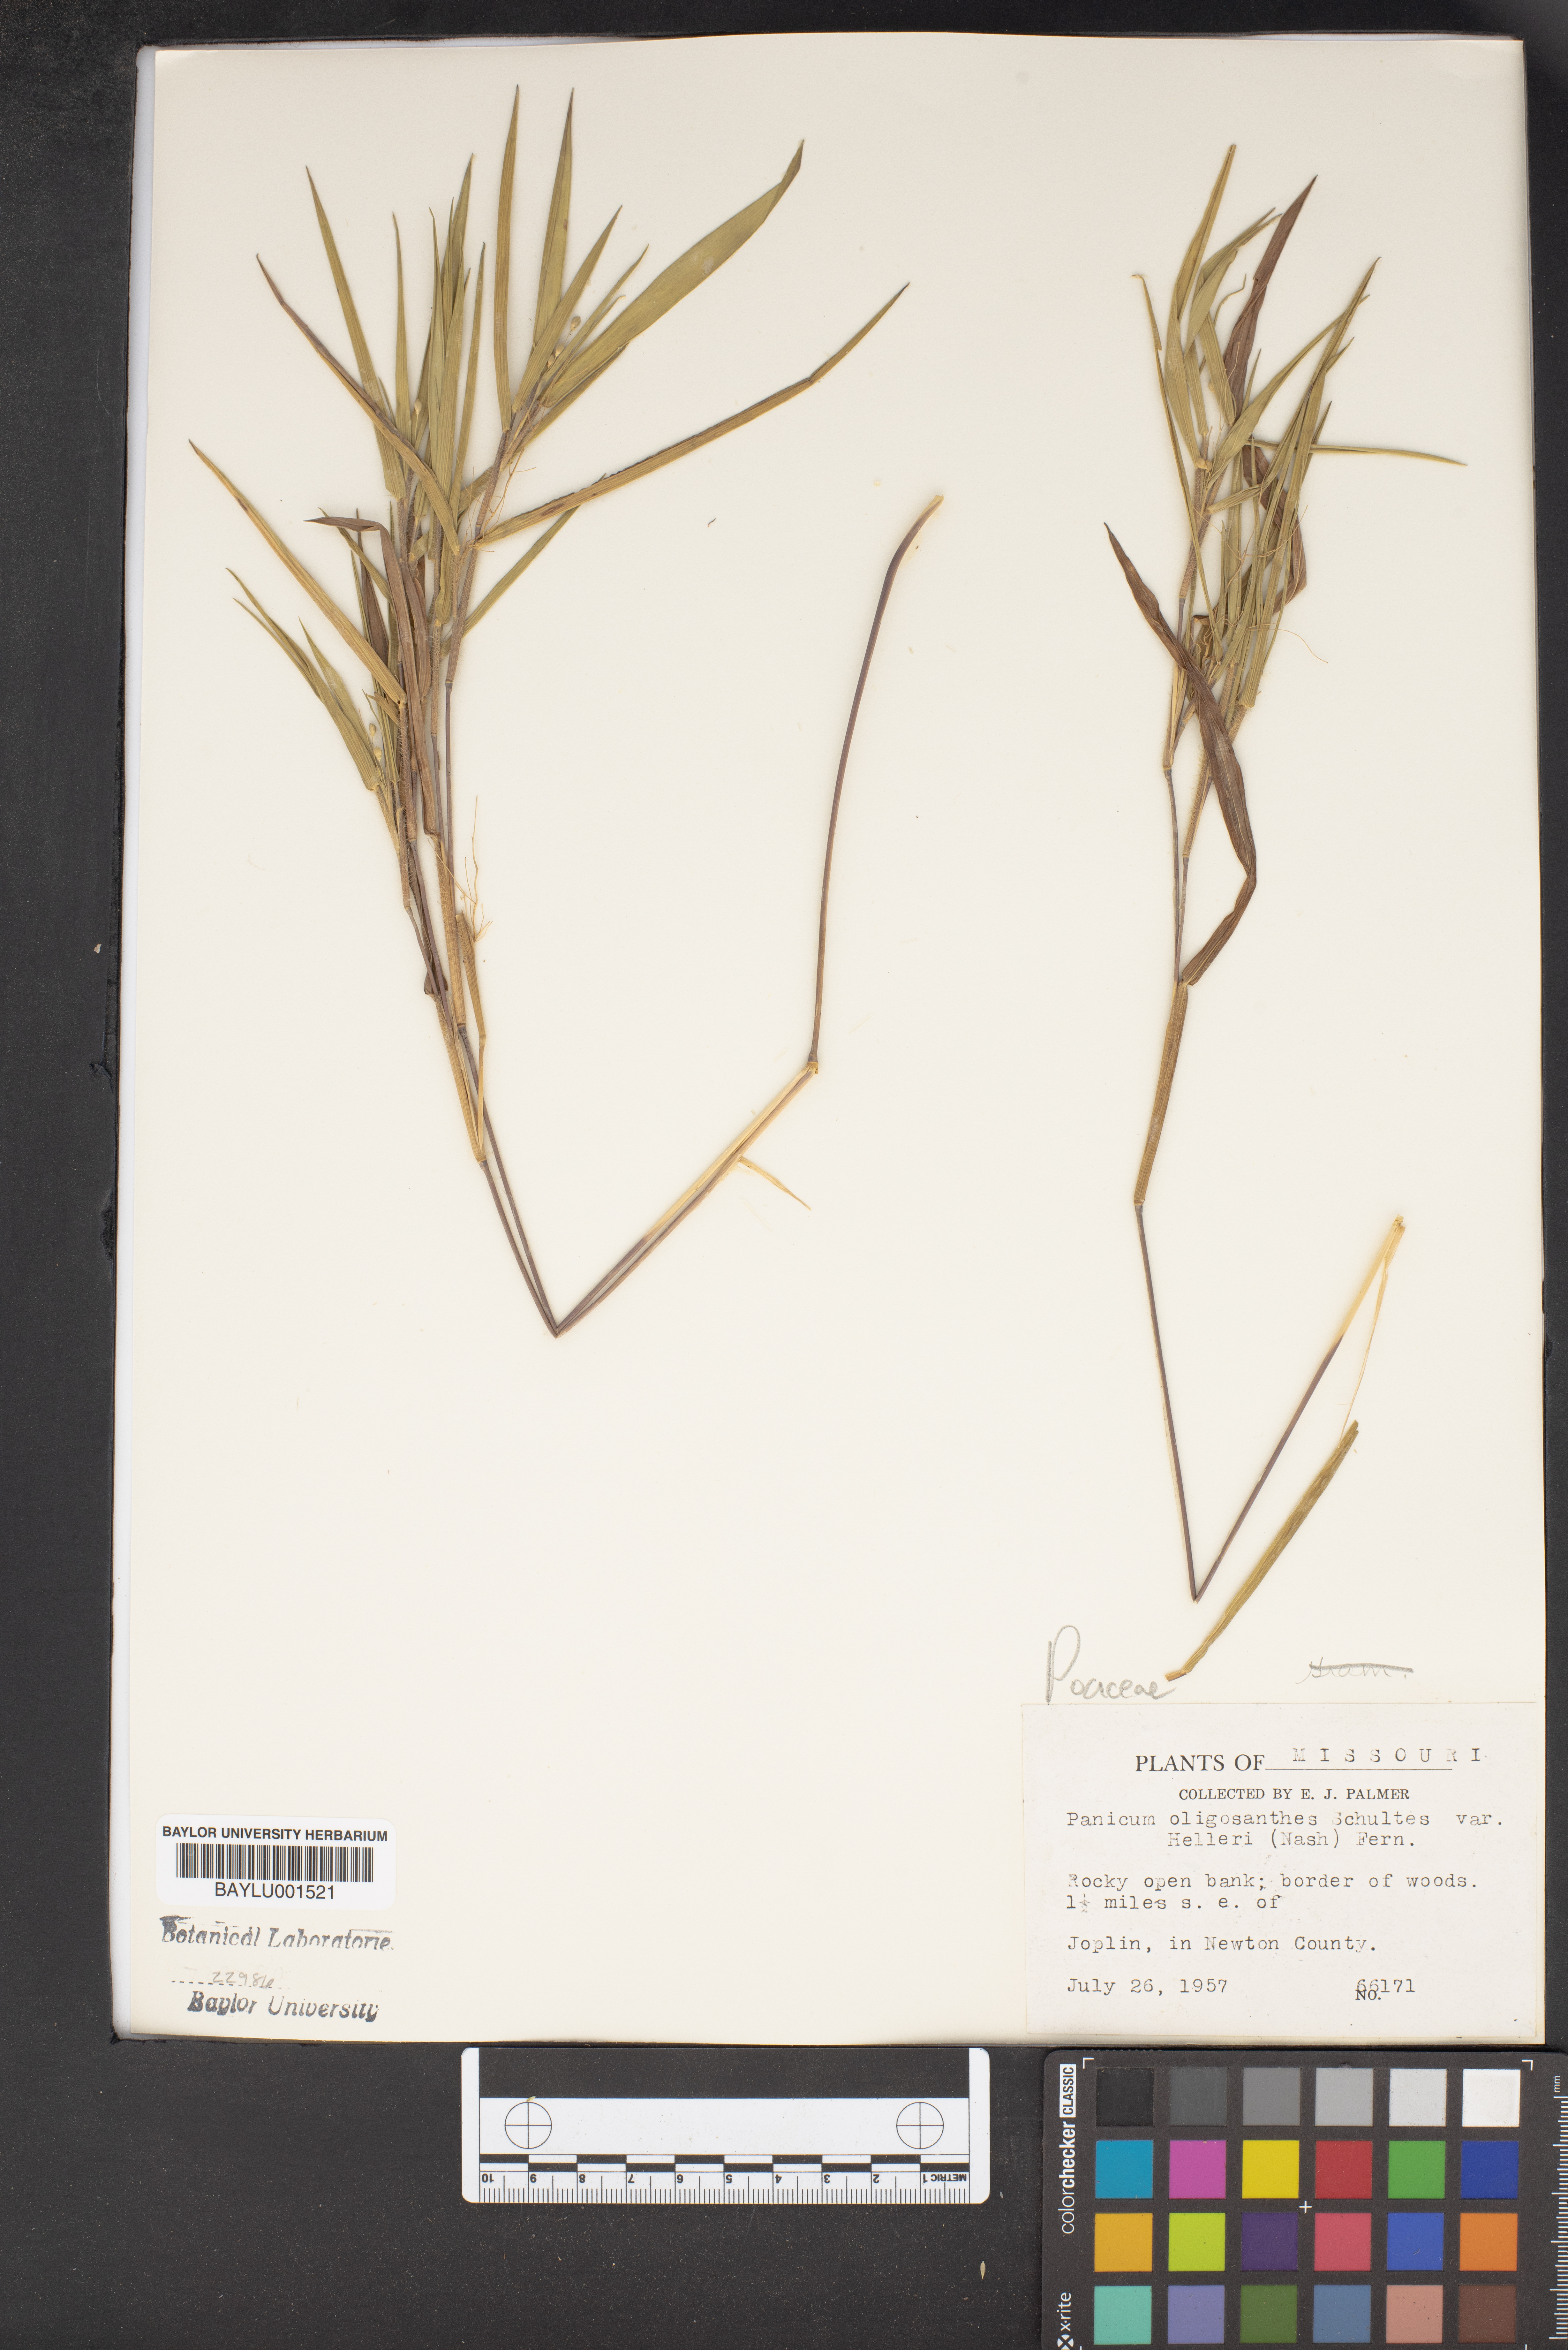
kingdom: Plantae
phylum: Tracheophyta
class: Liliopsida
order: Poales
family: Poaceae
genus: Dichanthelium
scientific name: Dichanthelium oligosanthes
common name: Few-anther obscuregrass
